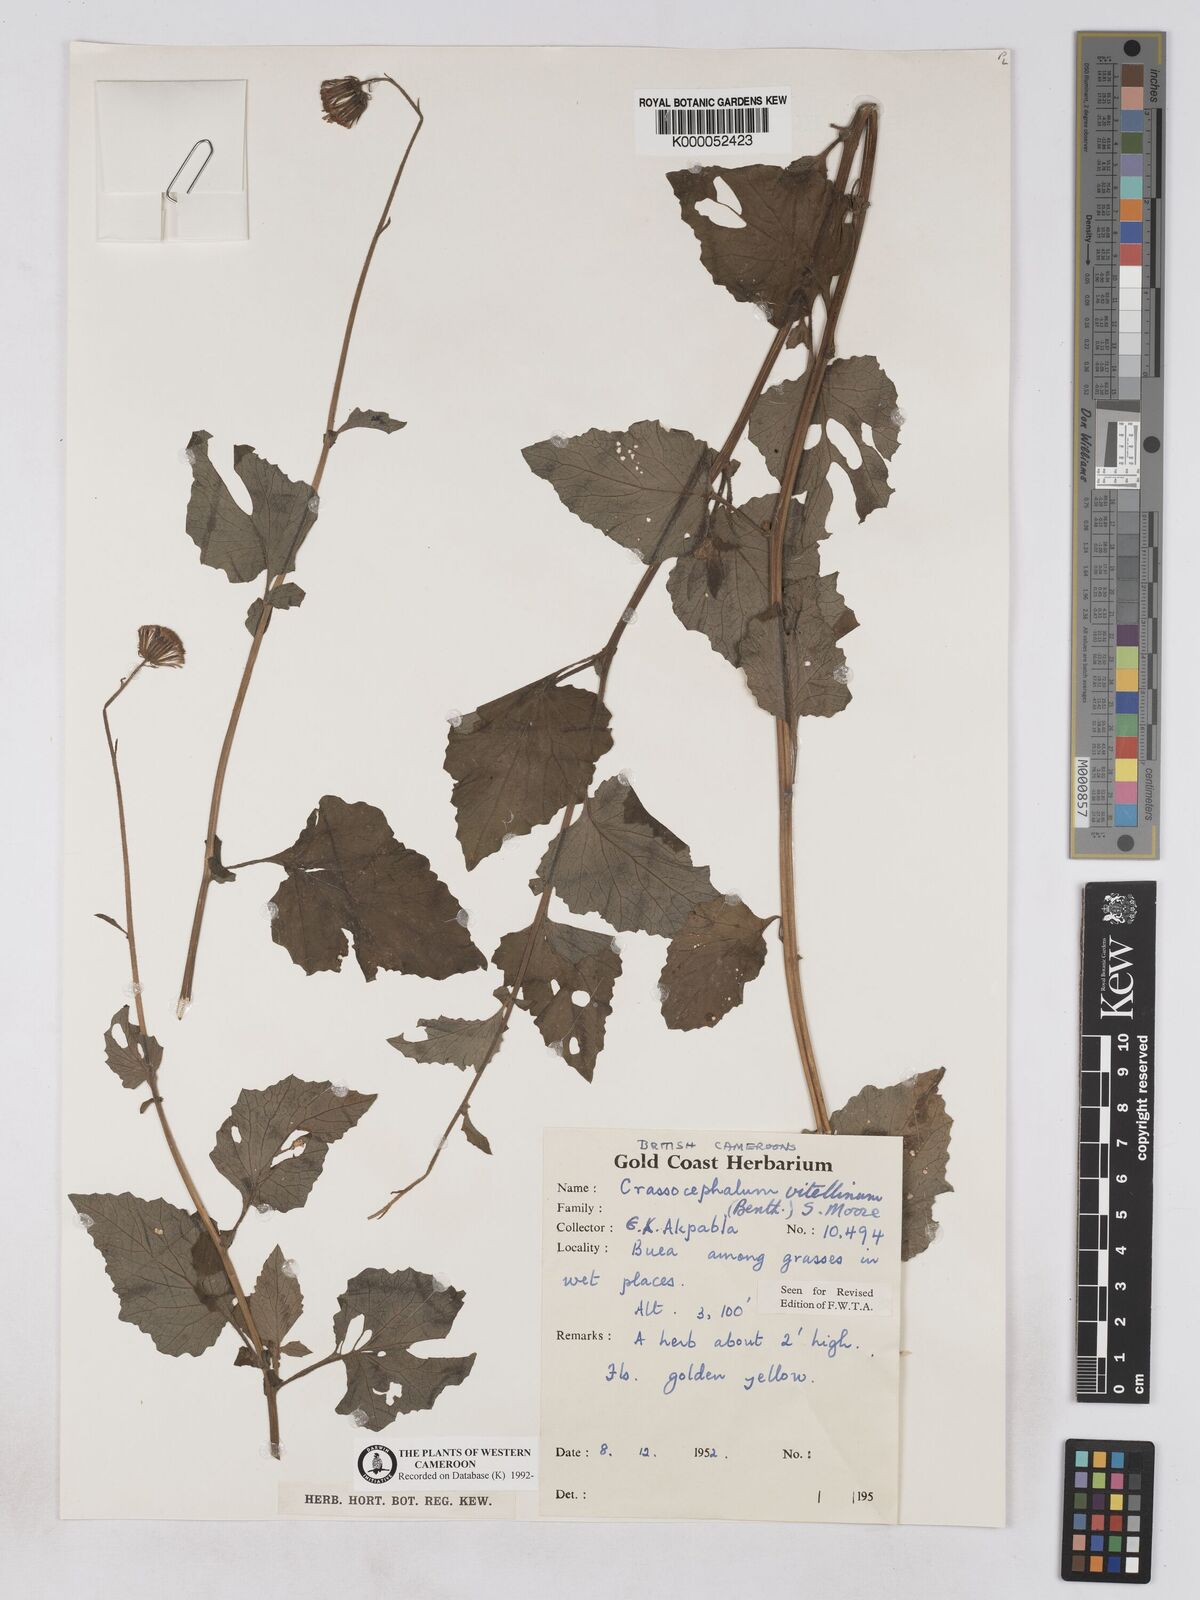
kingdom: Plantae
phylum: Tracheophyta
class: Magnoliopsida
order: Asterales
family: Asteraceae
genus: Crassocephalum
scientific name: Crassocephalum vitellinum
